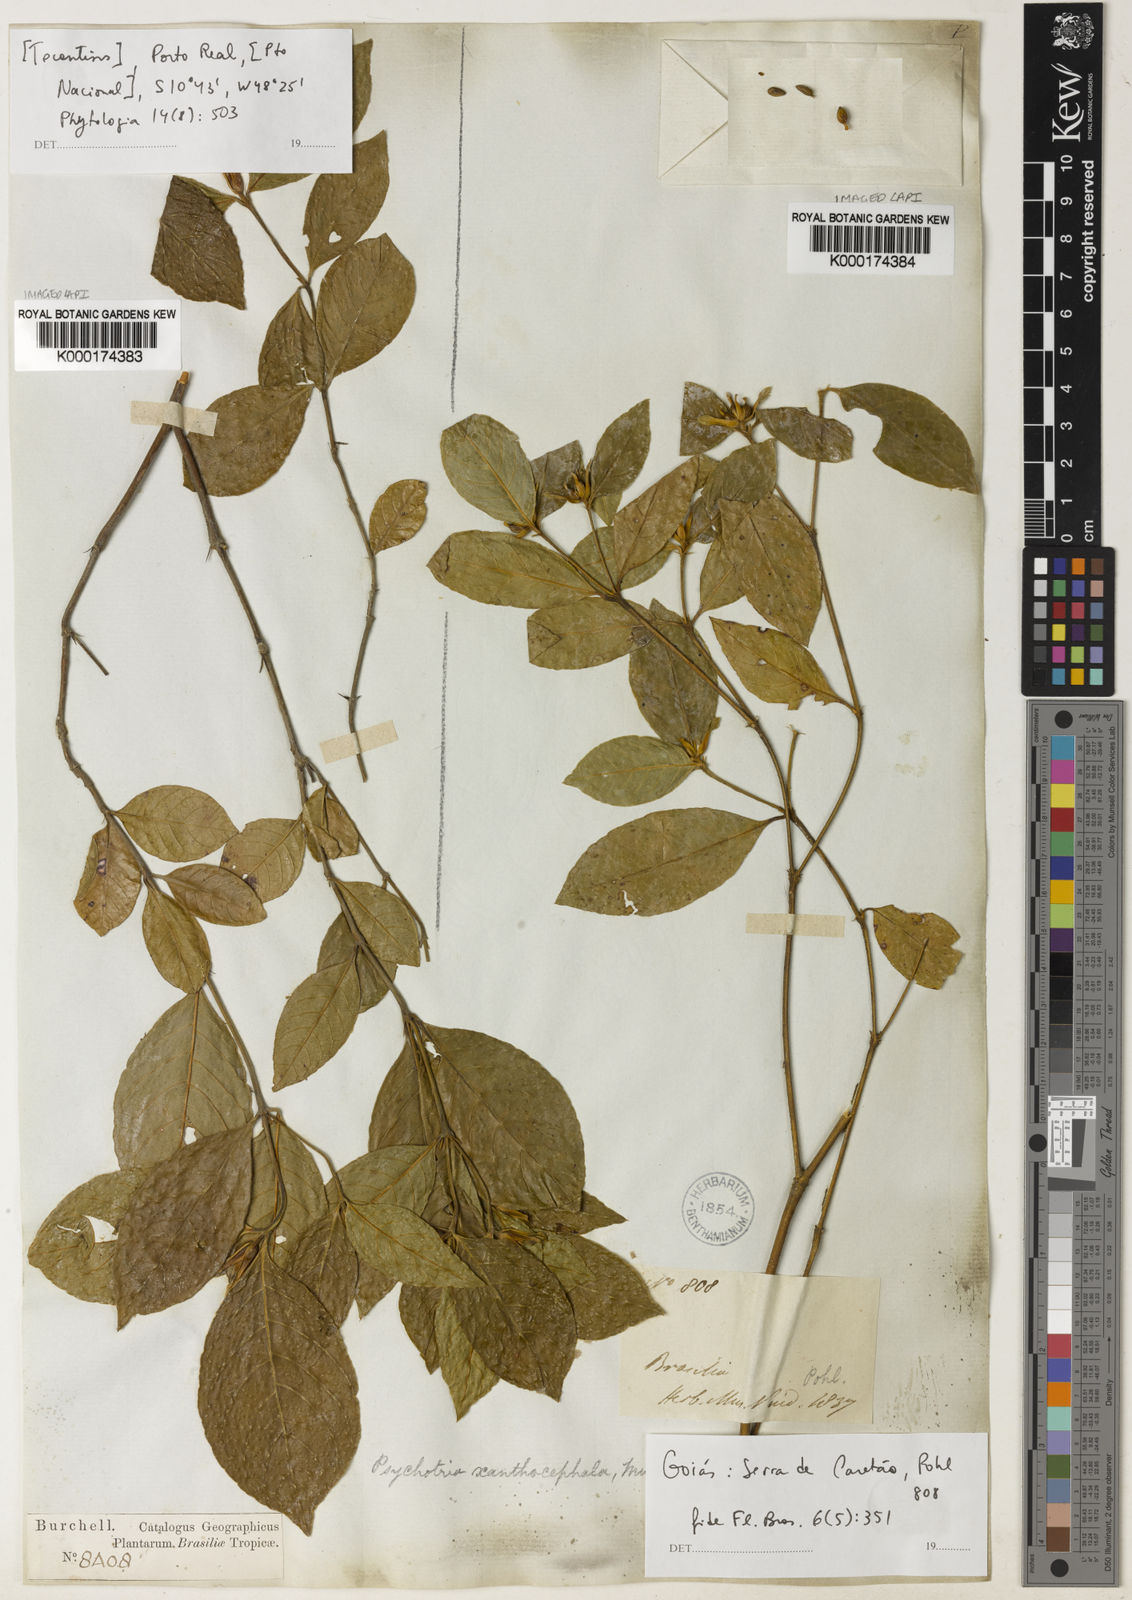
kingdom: Plantae
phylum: Tracheophyta
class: Magnoliopsida
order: Gentianales
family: Rubiaceae
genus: Psychotria
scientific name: Psychotria
